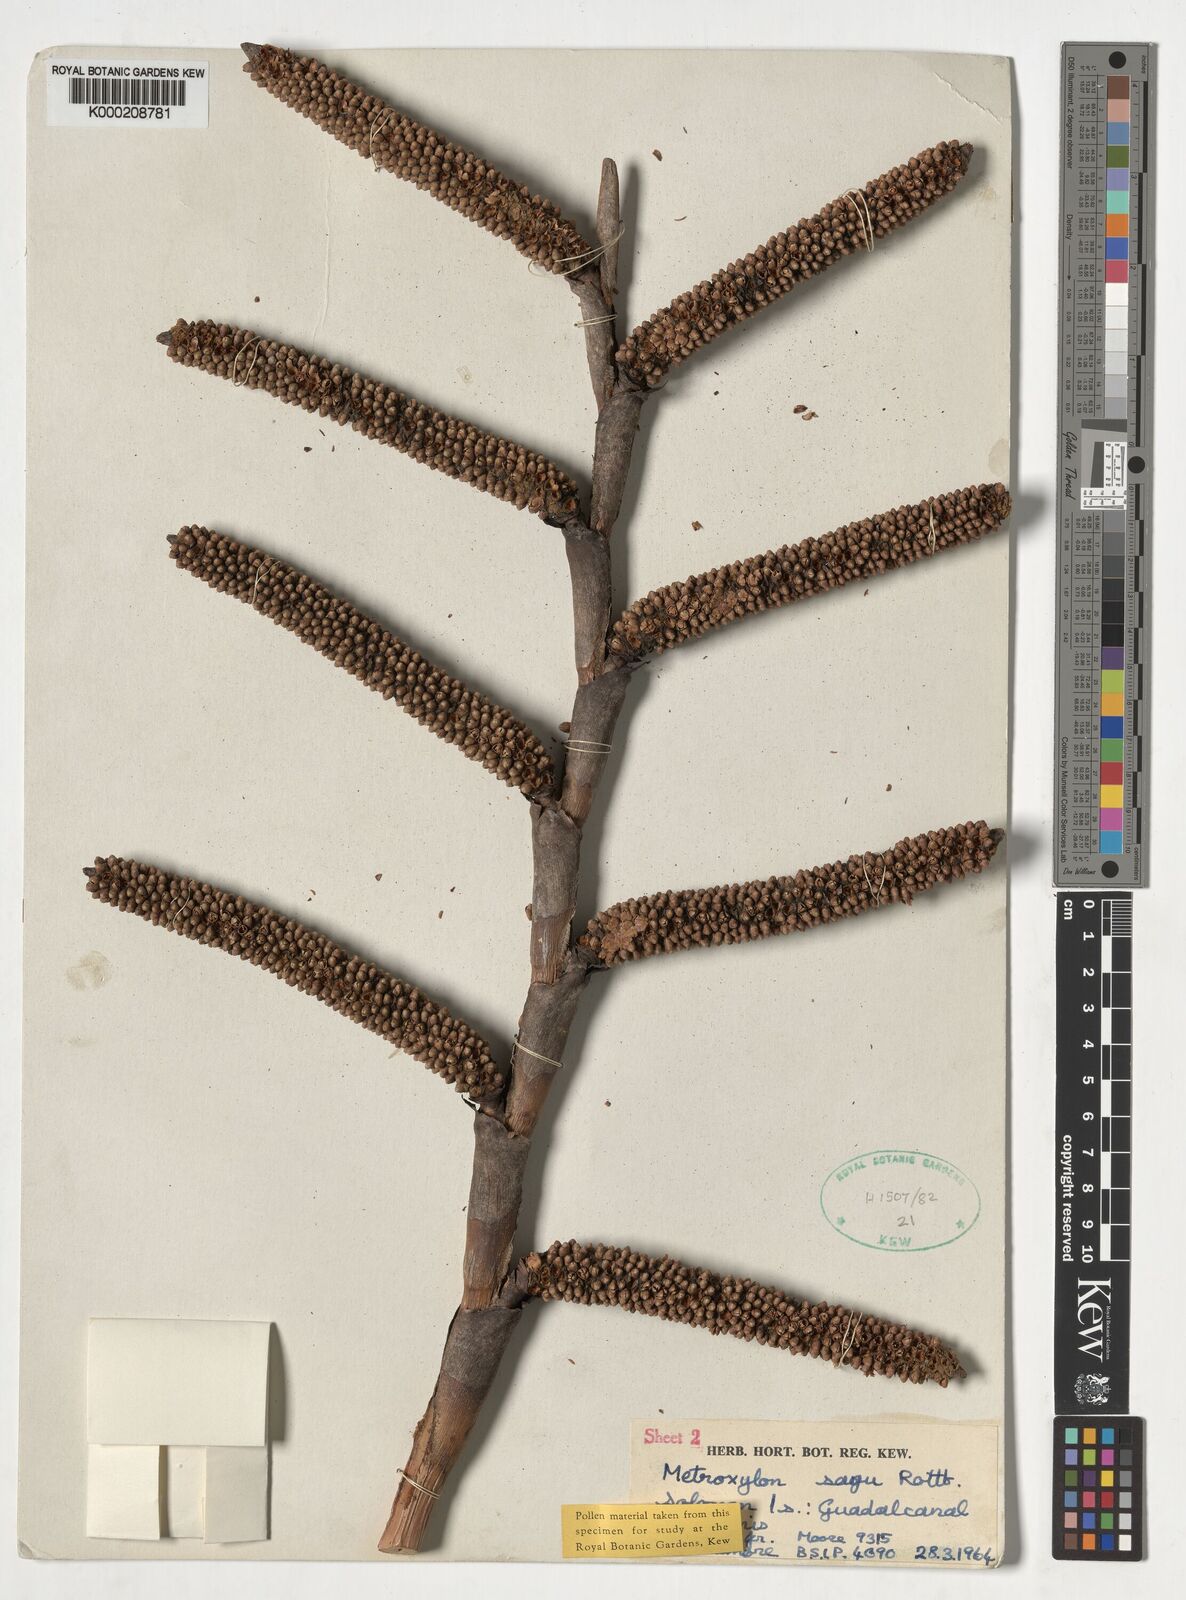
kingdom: Plantae
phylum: Tracheophyta
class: Liliopsida
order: Arecales
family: Arecaceae
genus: Metroxylon
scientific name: Metroxylon sagu
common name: Sago palm
